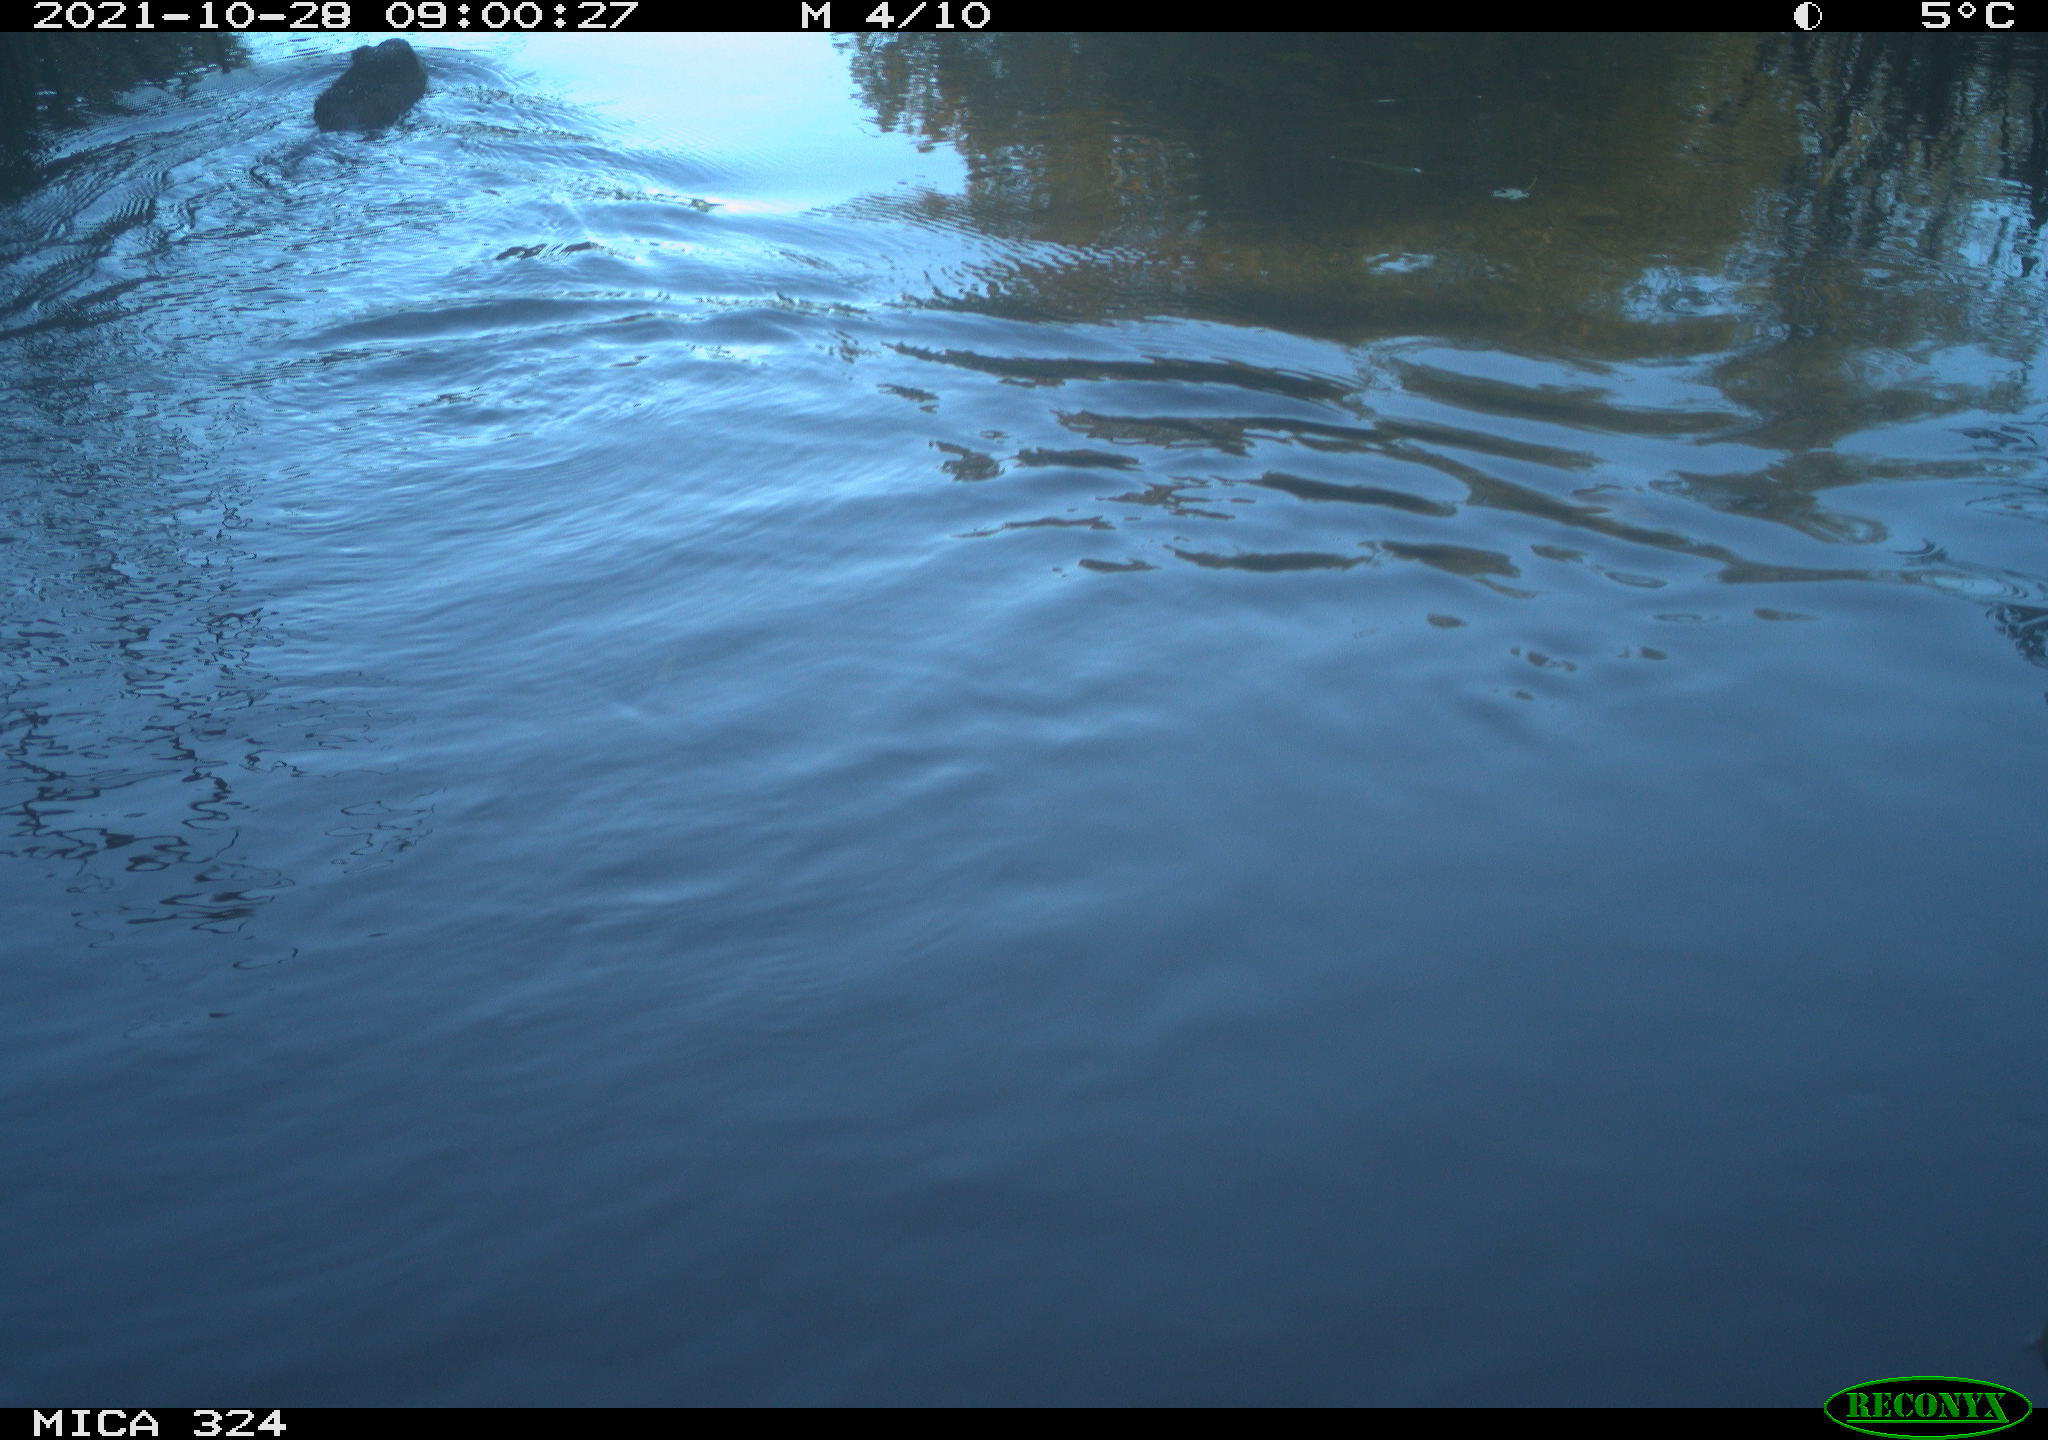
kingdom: Animalia
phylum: Chordata
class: Mammalia
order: Rodentia
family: Cricetidae
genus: Ondatra
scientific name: Ondatra zibethicus
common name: Muskrat
